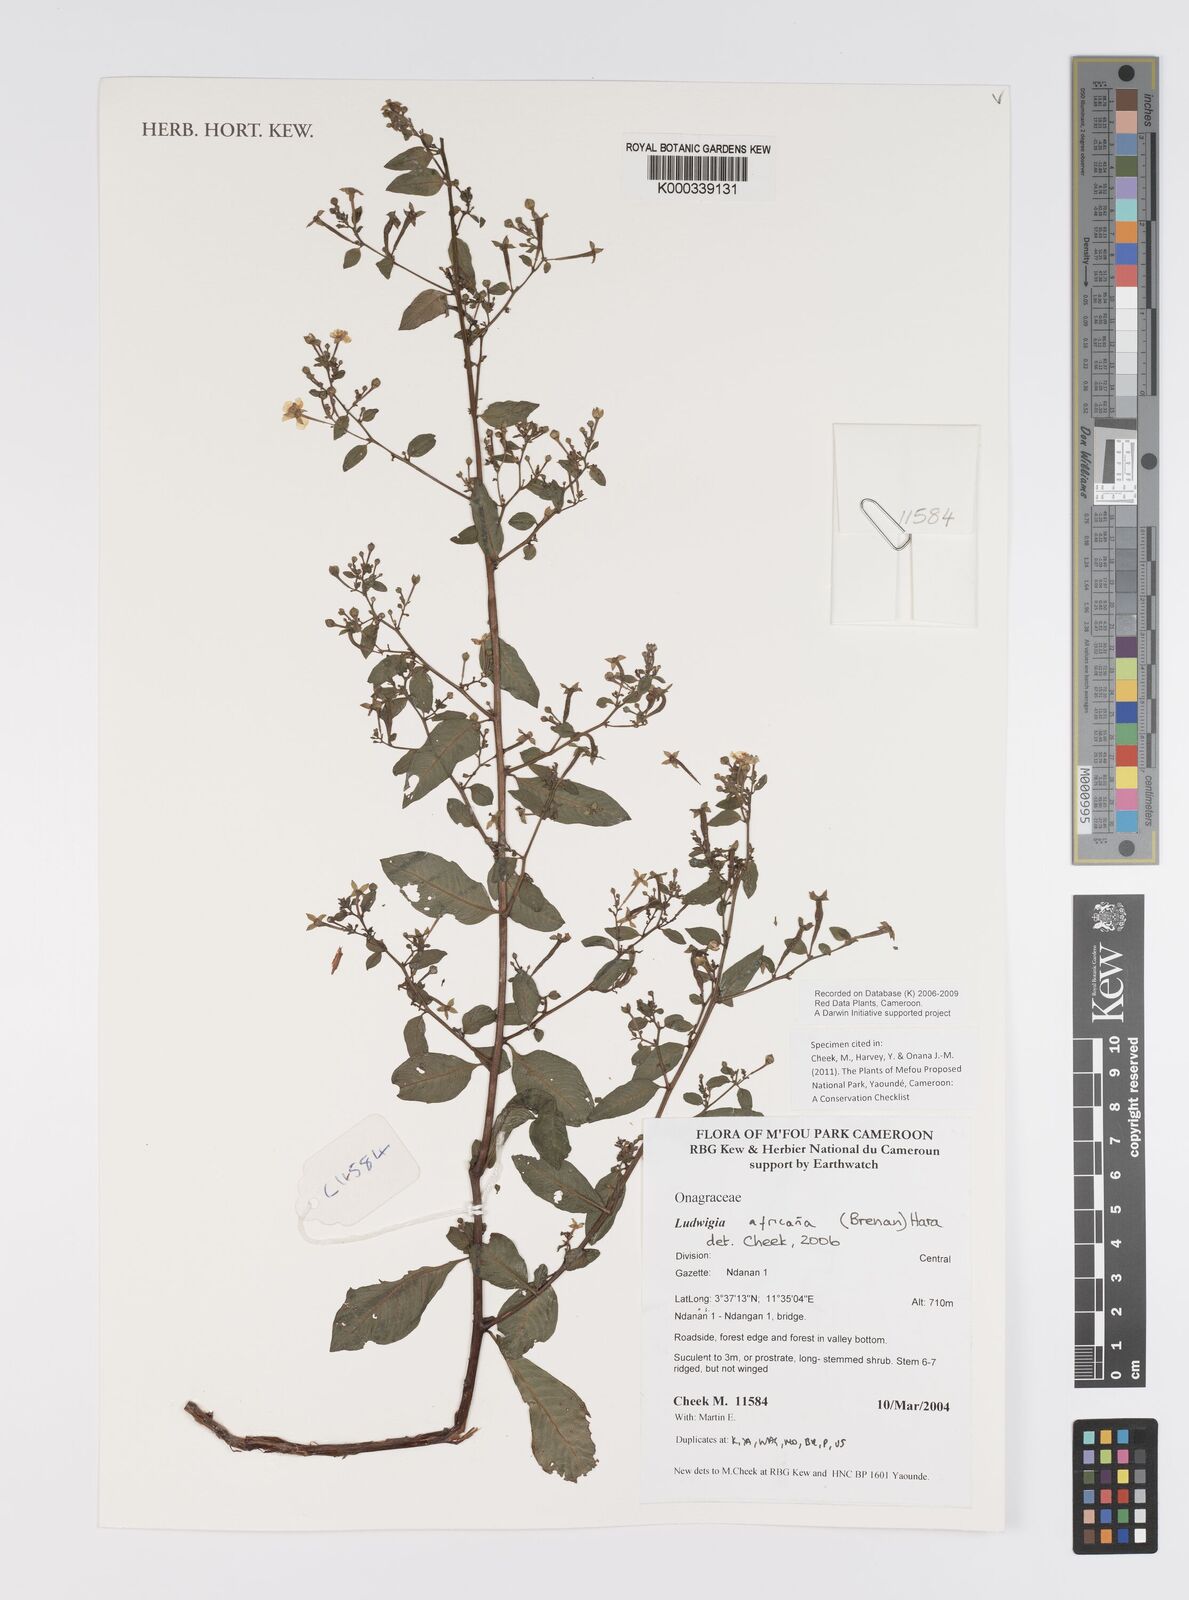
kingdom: Plantae
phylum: Tracheophyta
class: Magnoliopsida
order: Myrtales
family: Onagraceae
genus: Ludwigia
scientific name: Ludwigia africana
